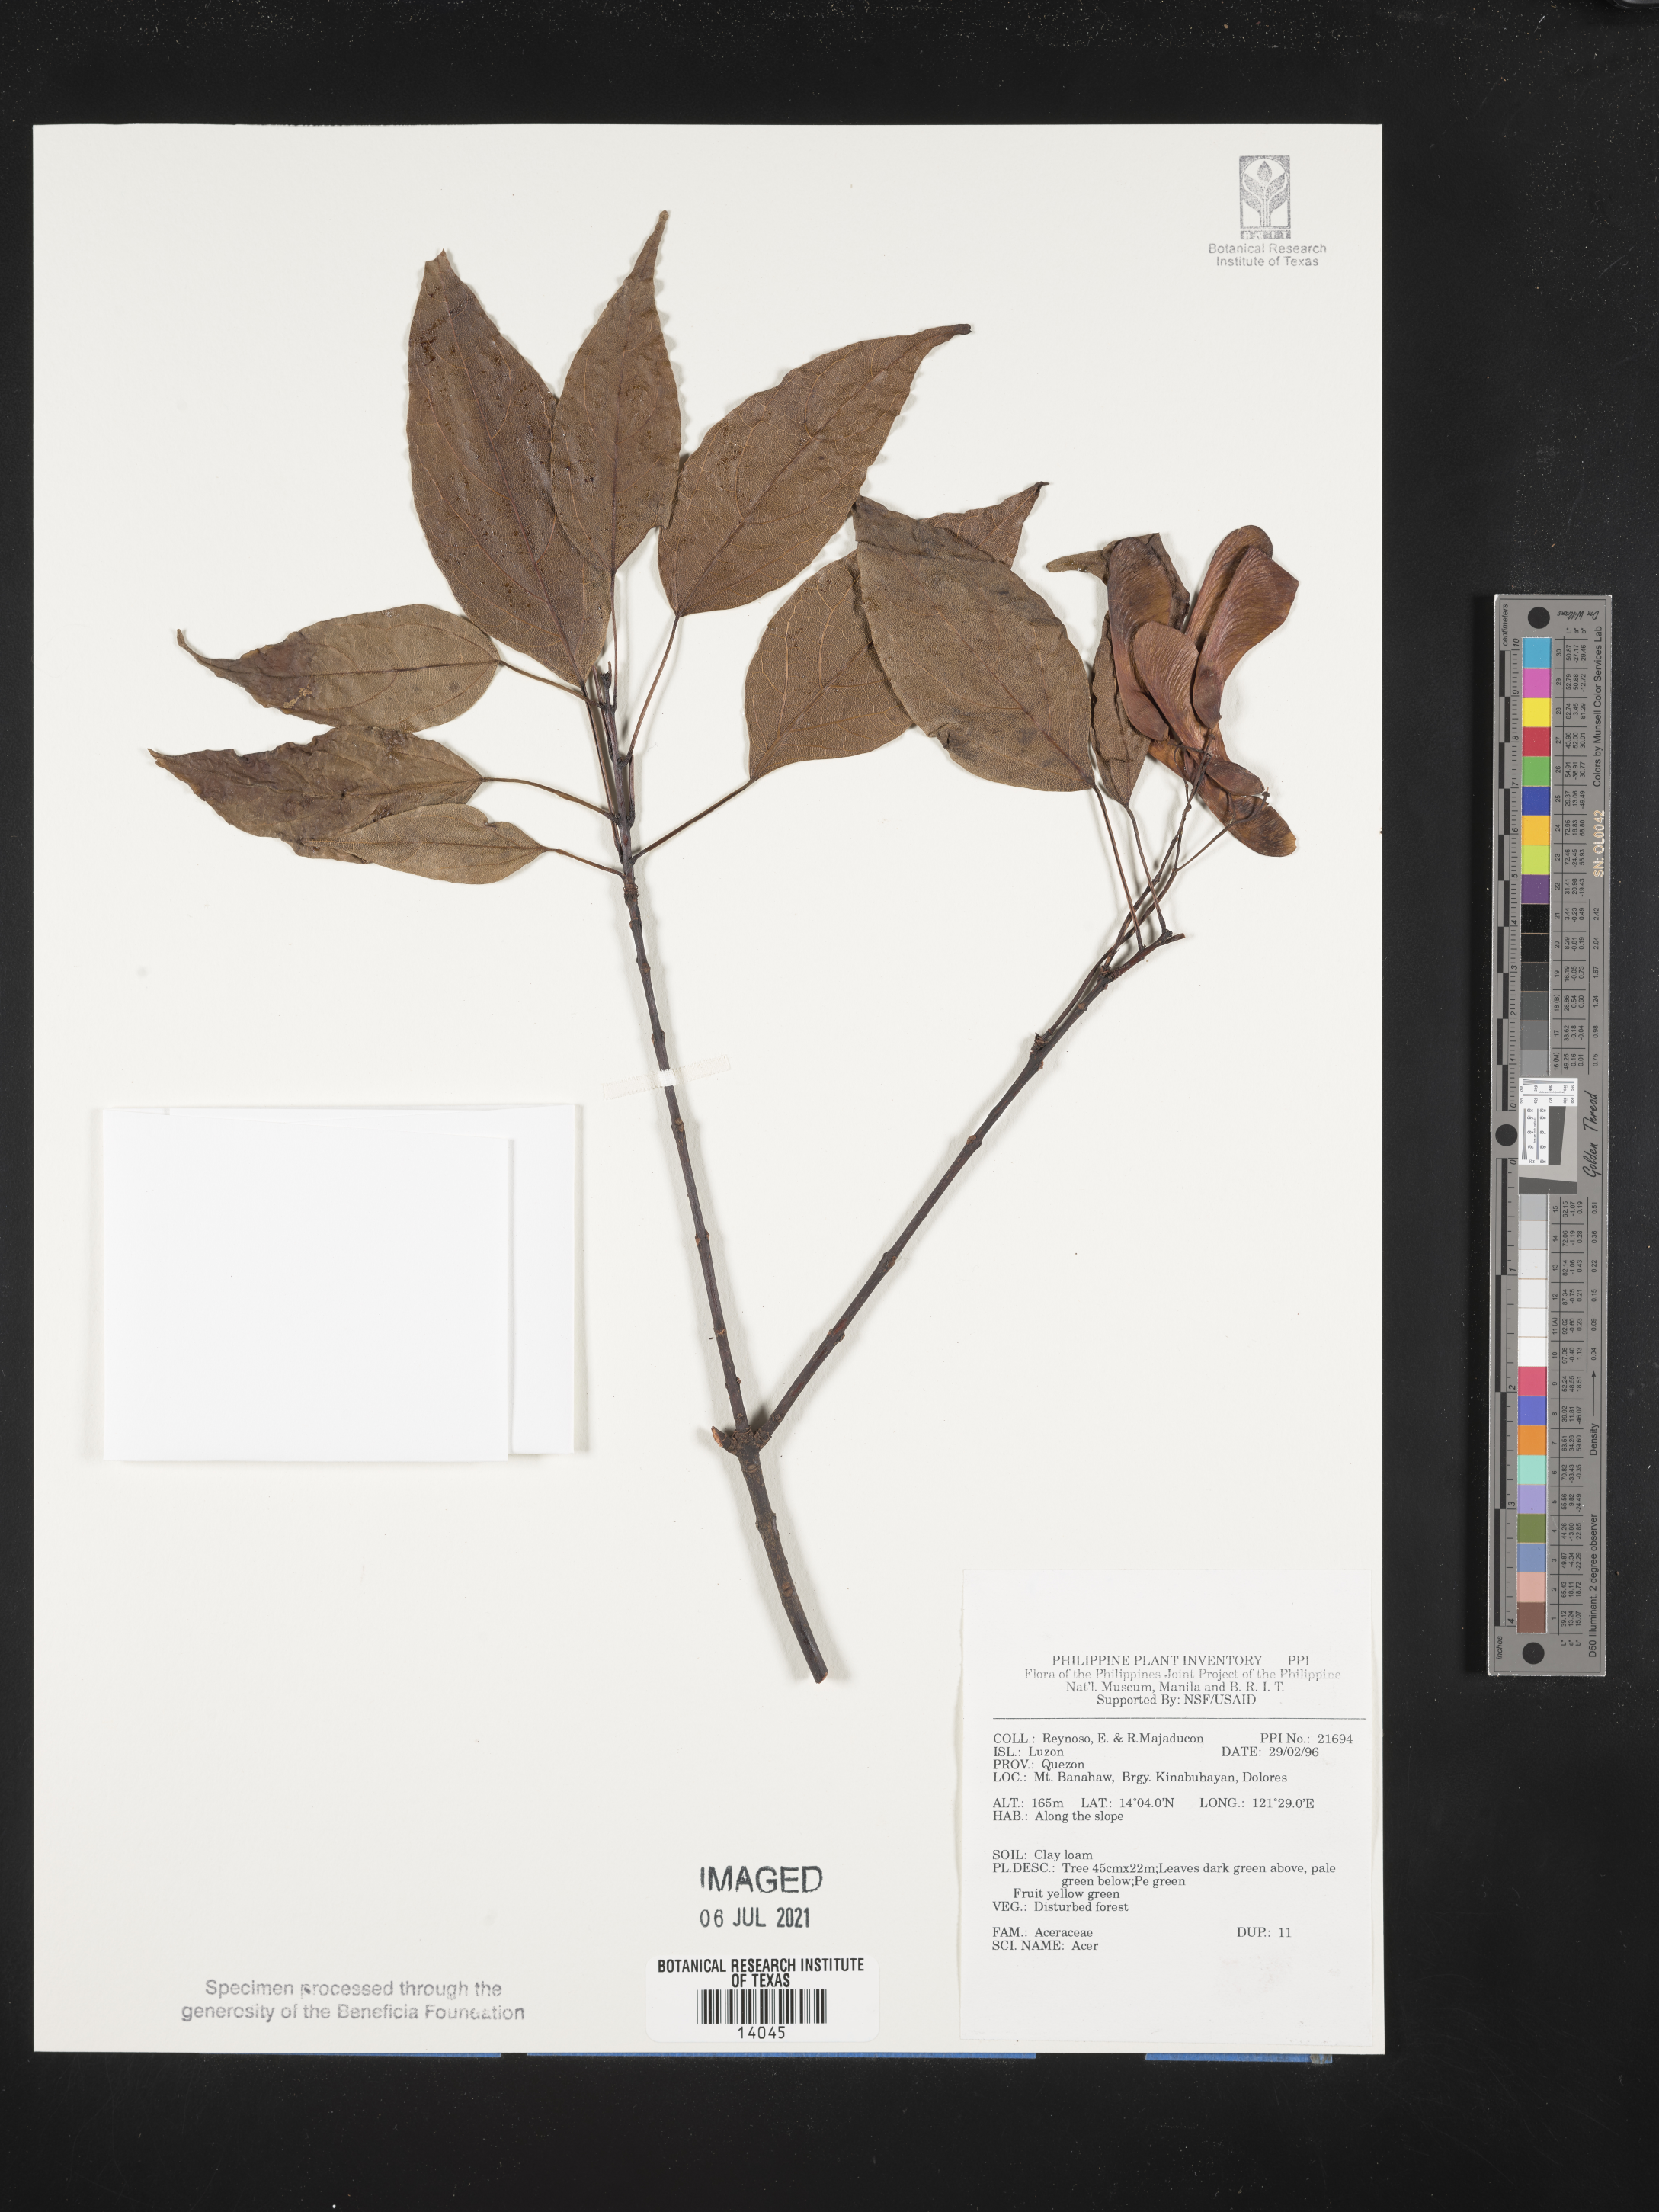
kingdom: Plantae
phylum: Tracheophyta
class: Magnoliopsida
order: Sapindales
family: Sapindaceae
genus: Acer
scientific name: Acer
